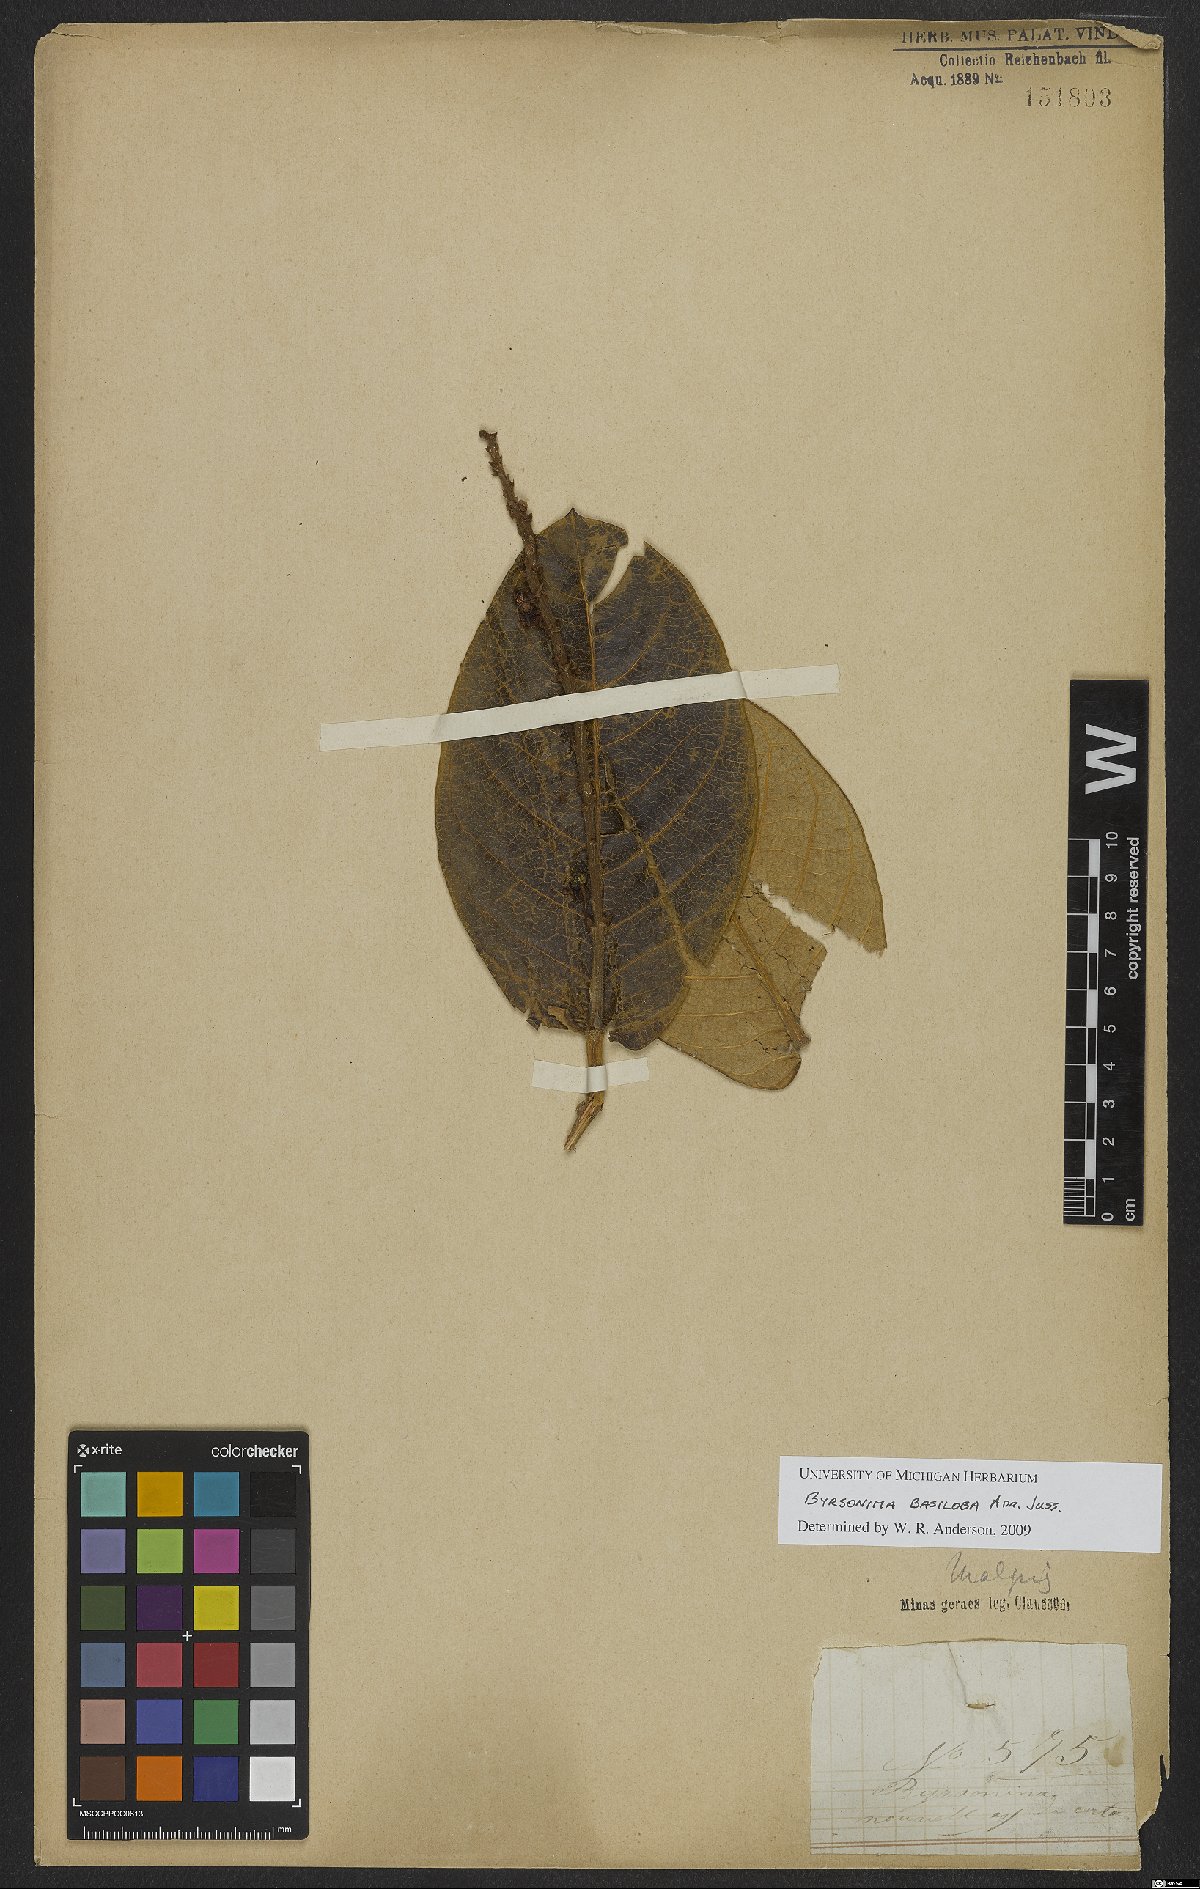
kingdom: Plantae
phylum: Tracheophyta
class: Magnoliopsida
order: Malpighiales
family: Malpighiaceae
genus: Byrsonima
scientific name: Byrsonima basiloba
